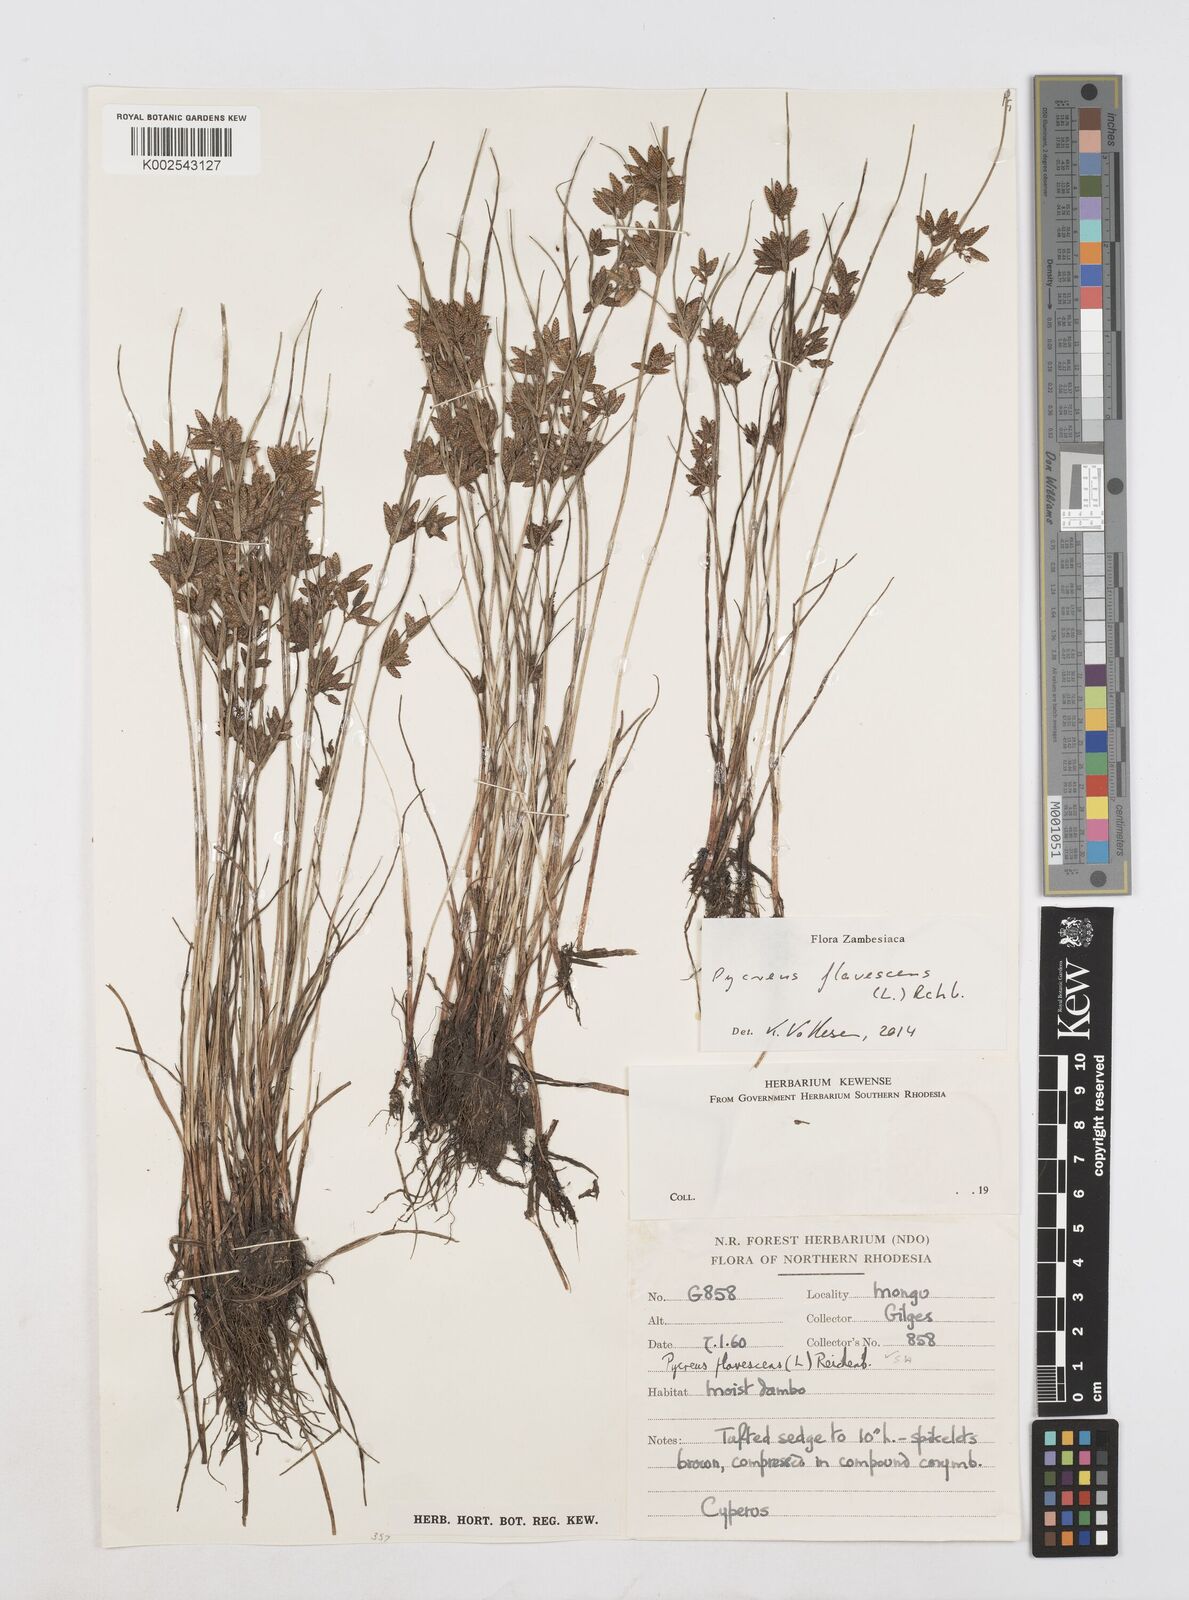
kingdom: Plantae
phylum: Tracheophyta
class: Liliopsida
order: Poales
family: Cyperaceae
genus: Cyperus
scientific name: Cyperus flavescens
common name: Yellow galingale
